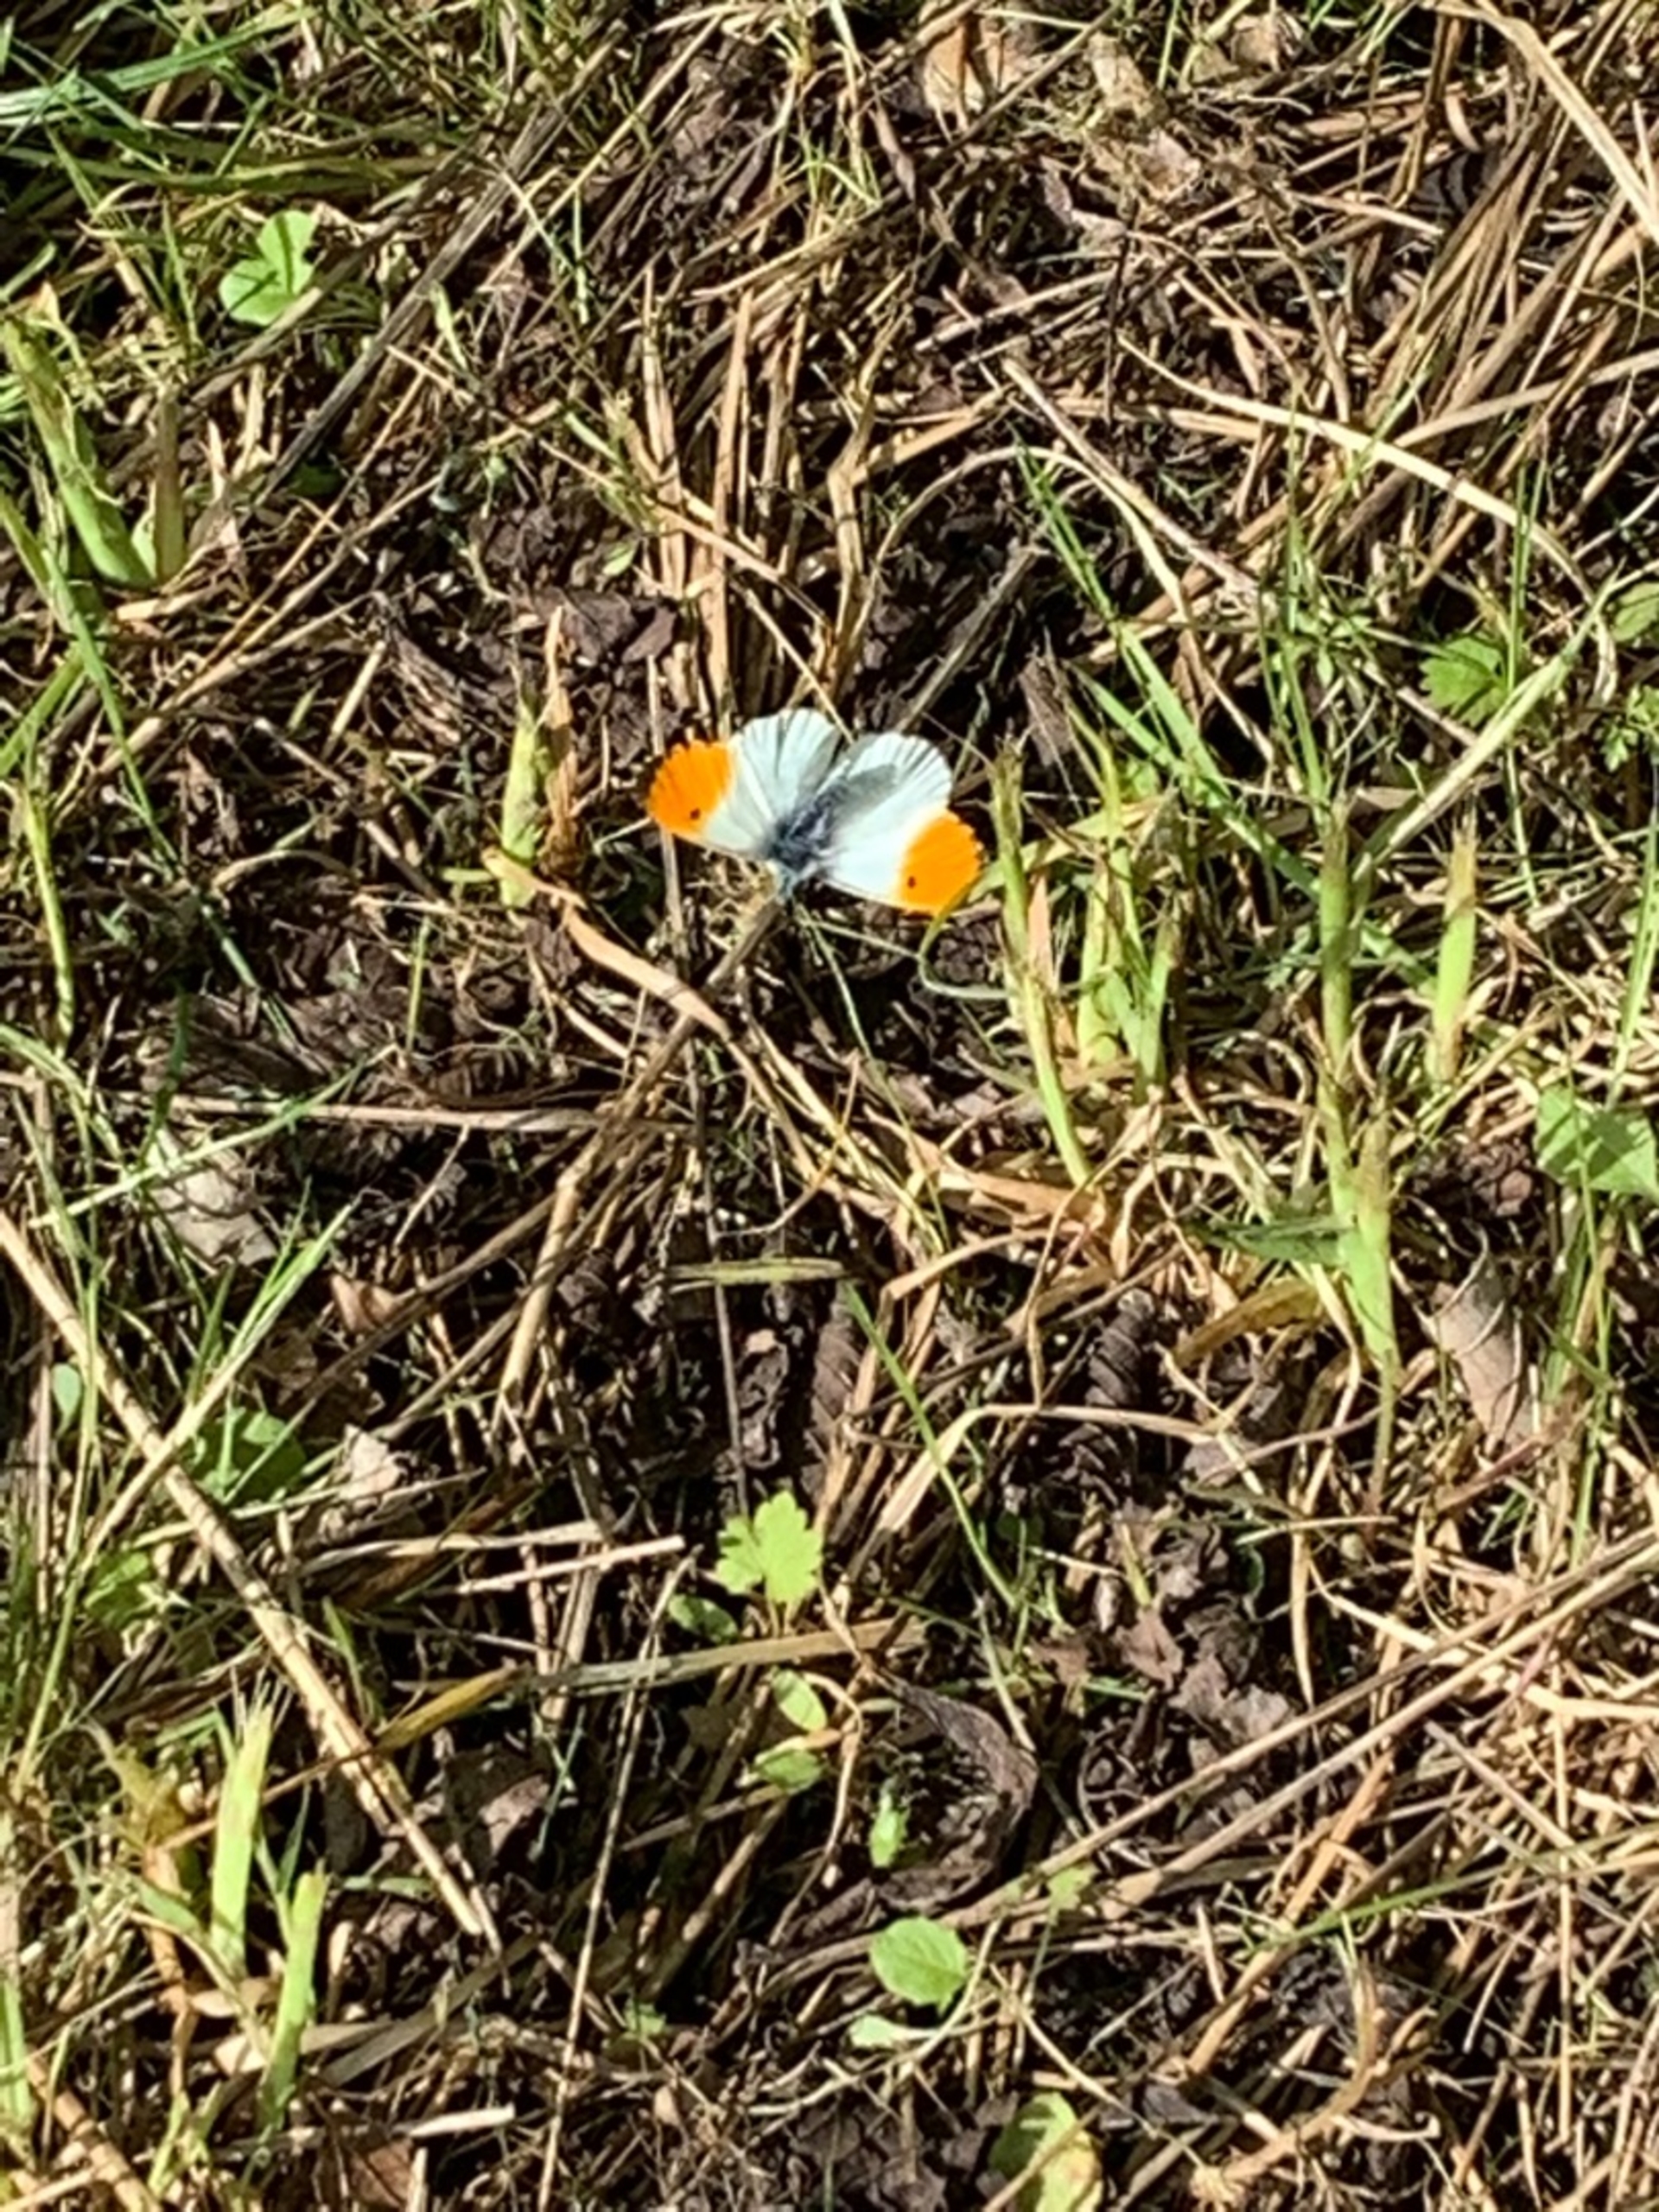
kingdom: Animalia
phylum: Arthropoda
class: Insecta
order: Lepidoptera
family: Pieridae
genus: Anthocharis
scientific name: Anthocharis cardamines
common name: Aurora
